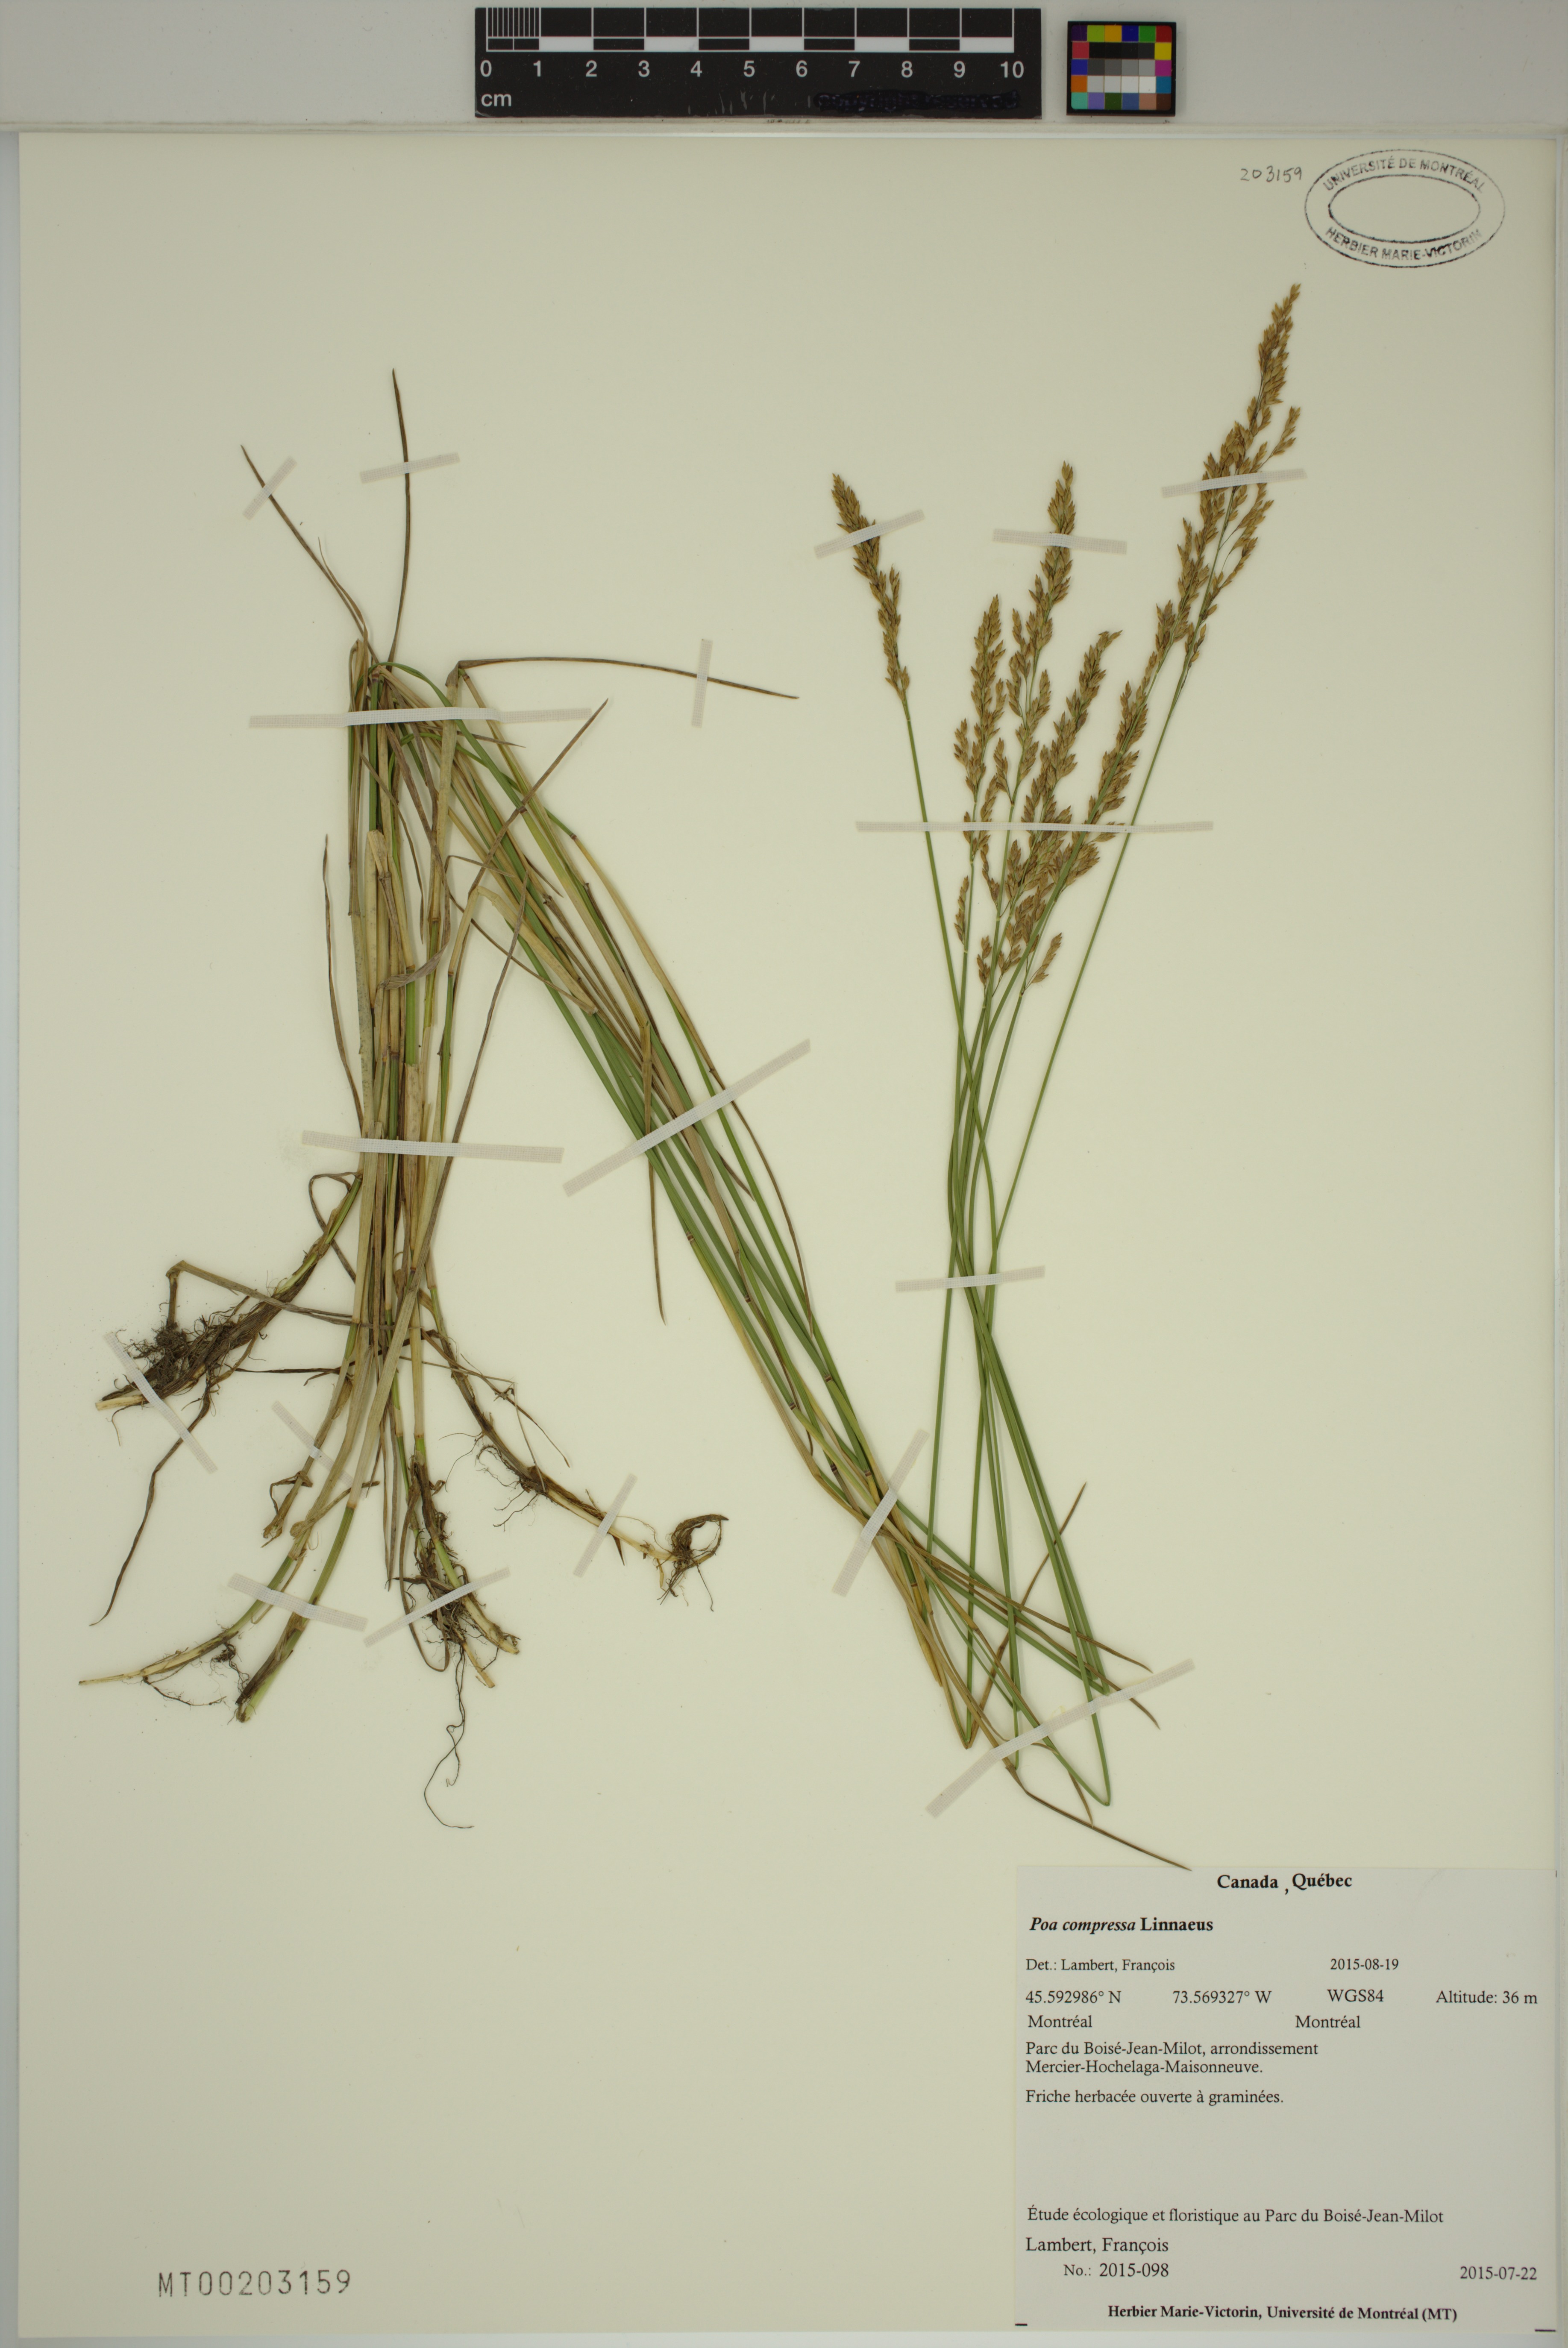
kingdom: Plantae
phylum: Tracheophyta
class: Liliopsida
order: Poales
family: Poaceae
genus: Poa
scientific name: Poa compressa
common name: Canada bluegrass
